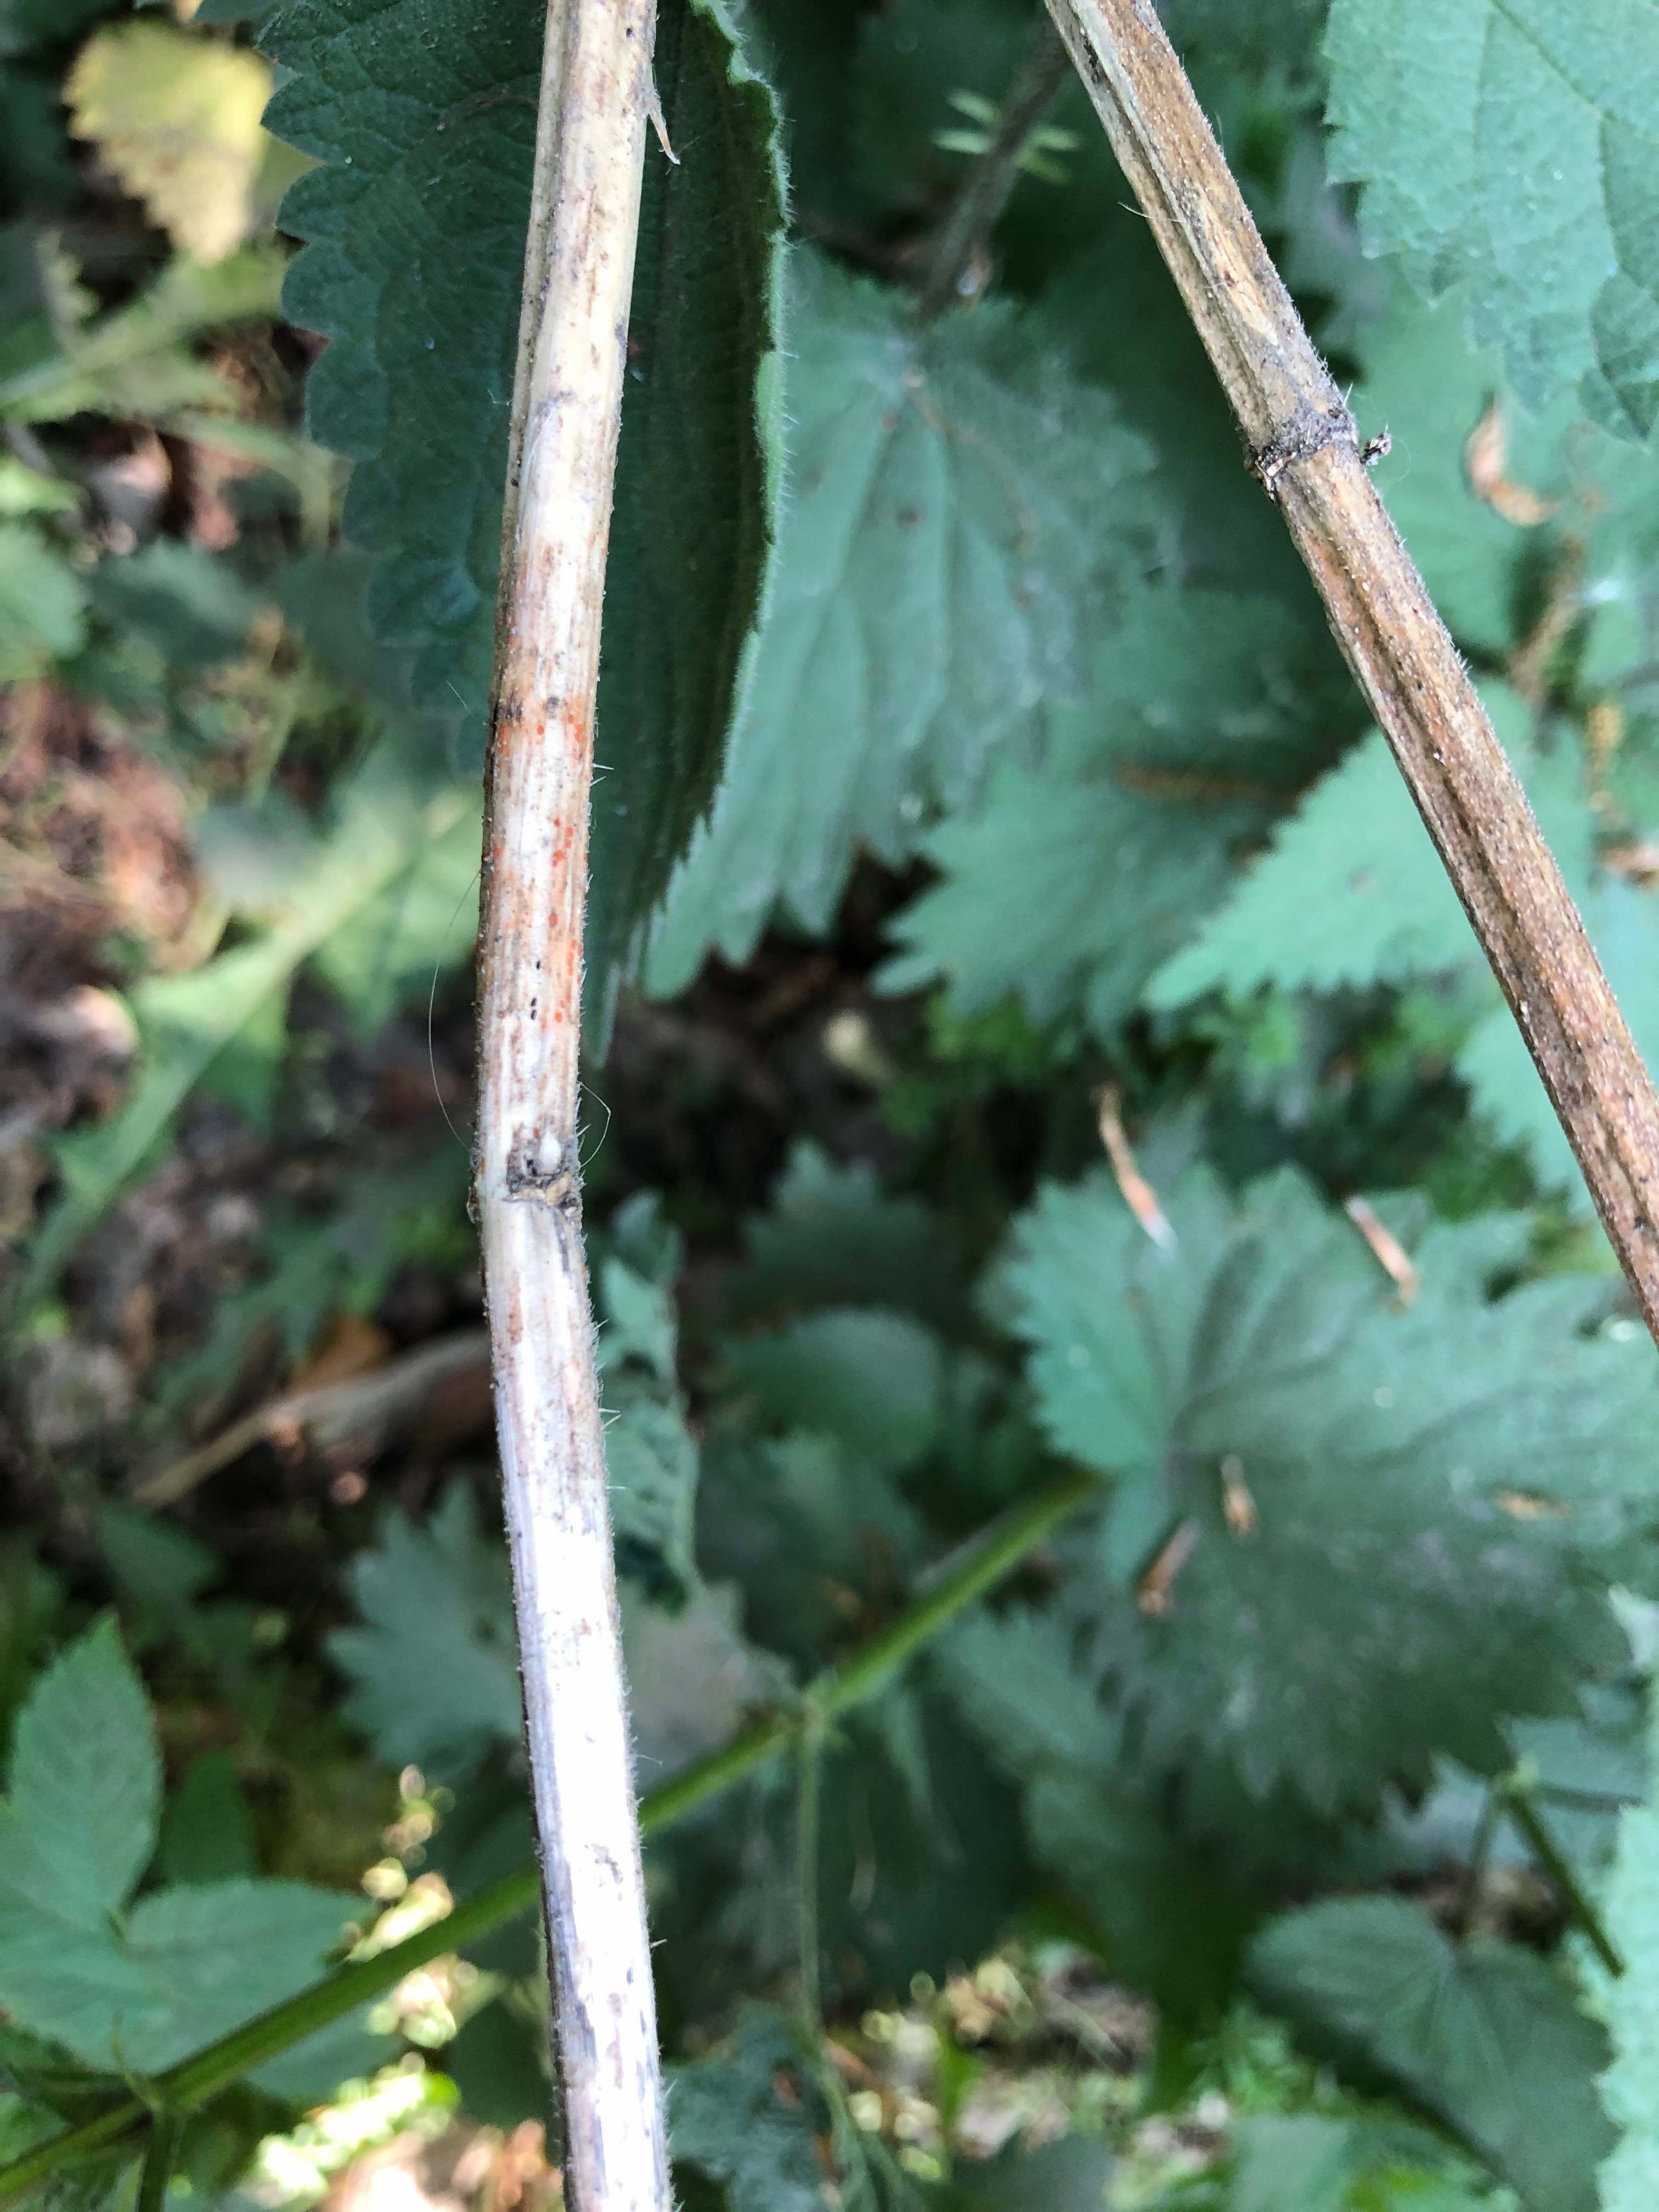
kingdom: Fungi
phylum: Ascomycota
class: Leotiomycetes
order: Helotiales
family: Calloriaceae
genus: Calloria
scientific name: Calloria urticae
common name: nælde-orangeskive
